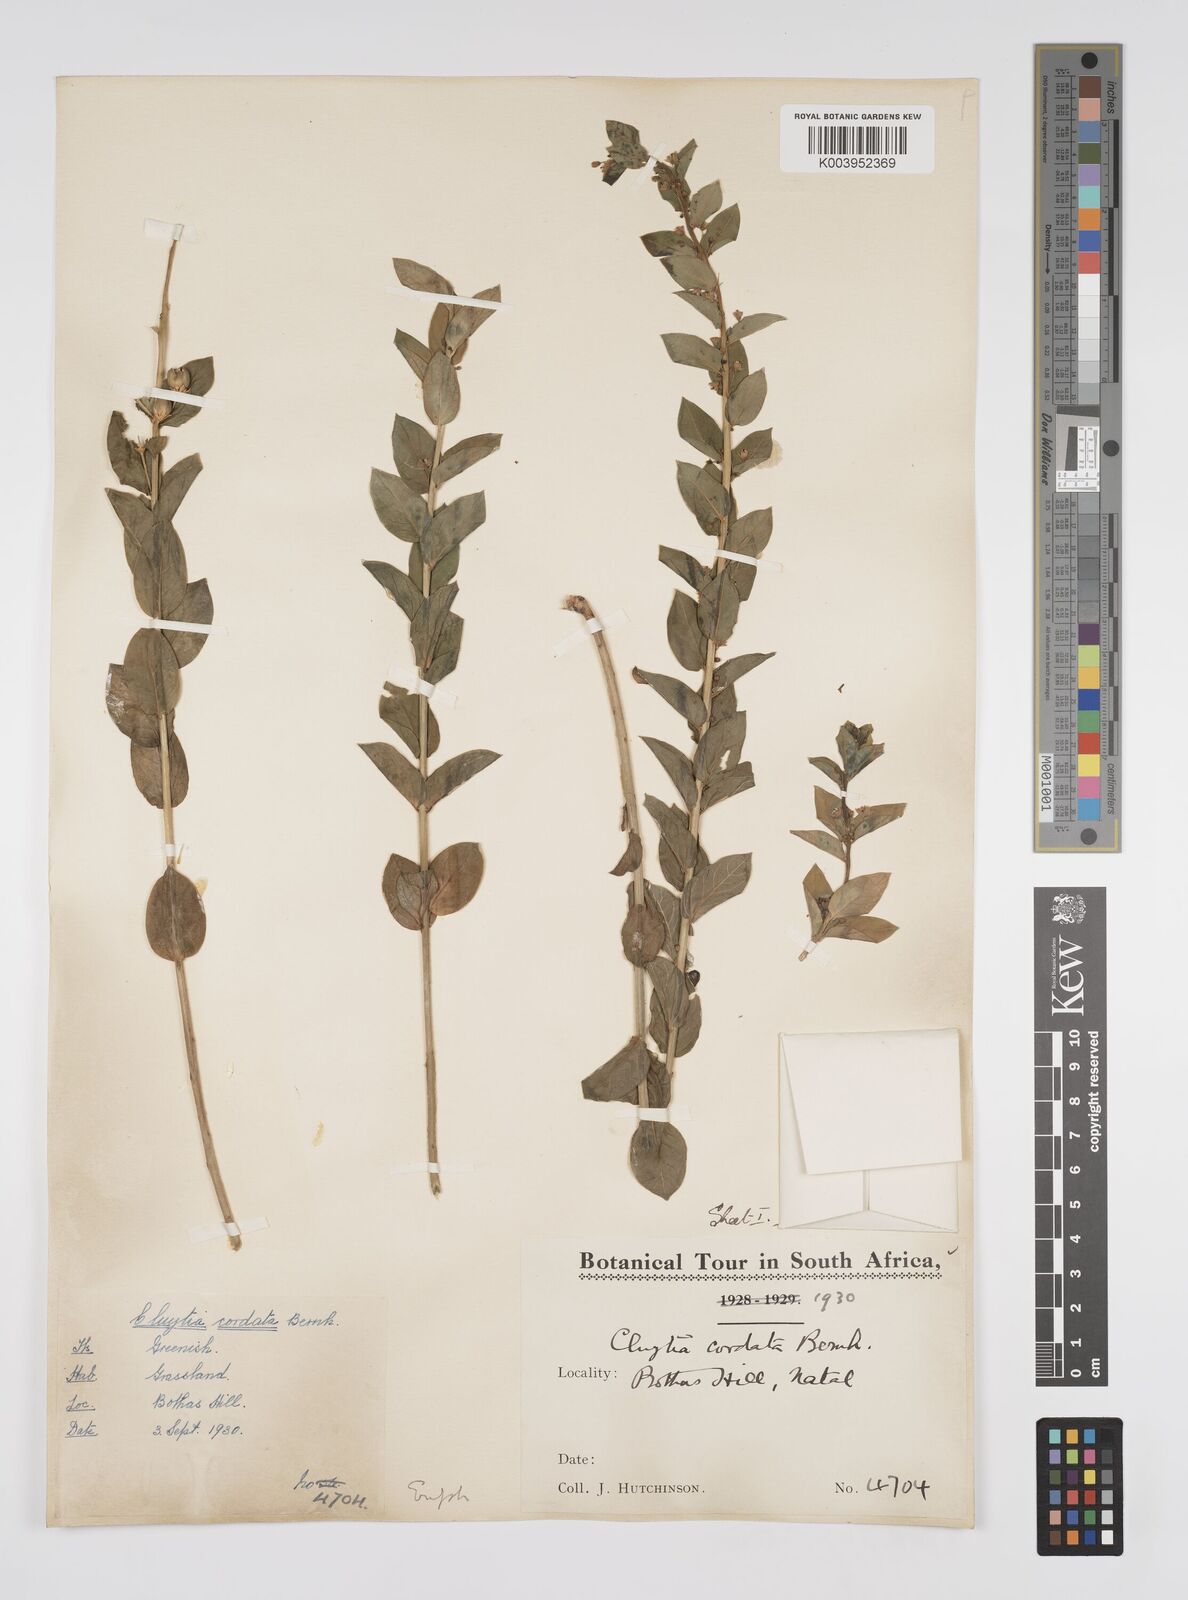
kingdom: Plantae
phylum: Tracheophyta
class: Magnoliopsida
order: Malpighiales
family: Peraceae
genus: Clutia
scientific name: Clutia cordata
